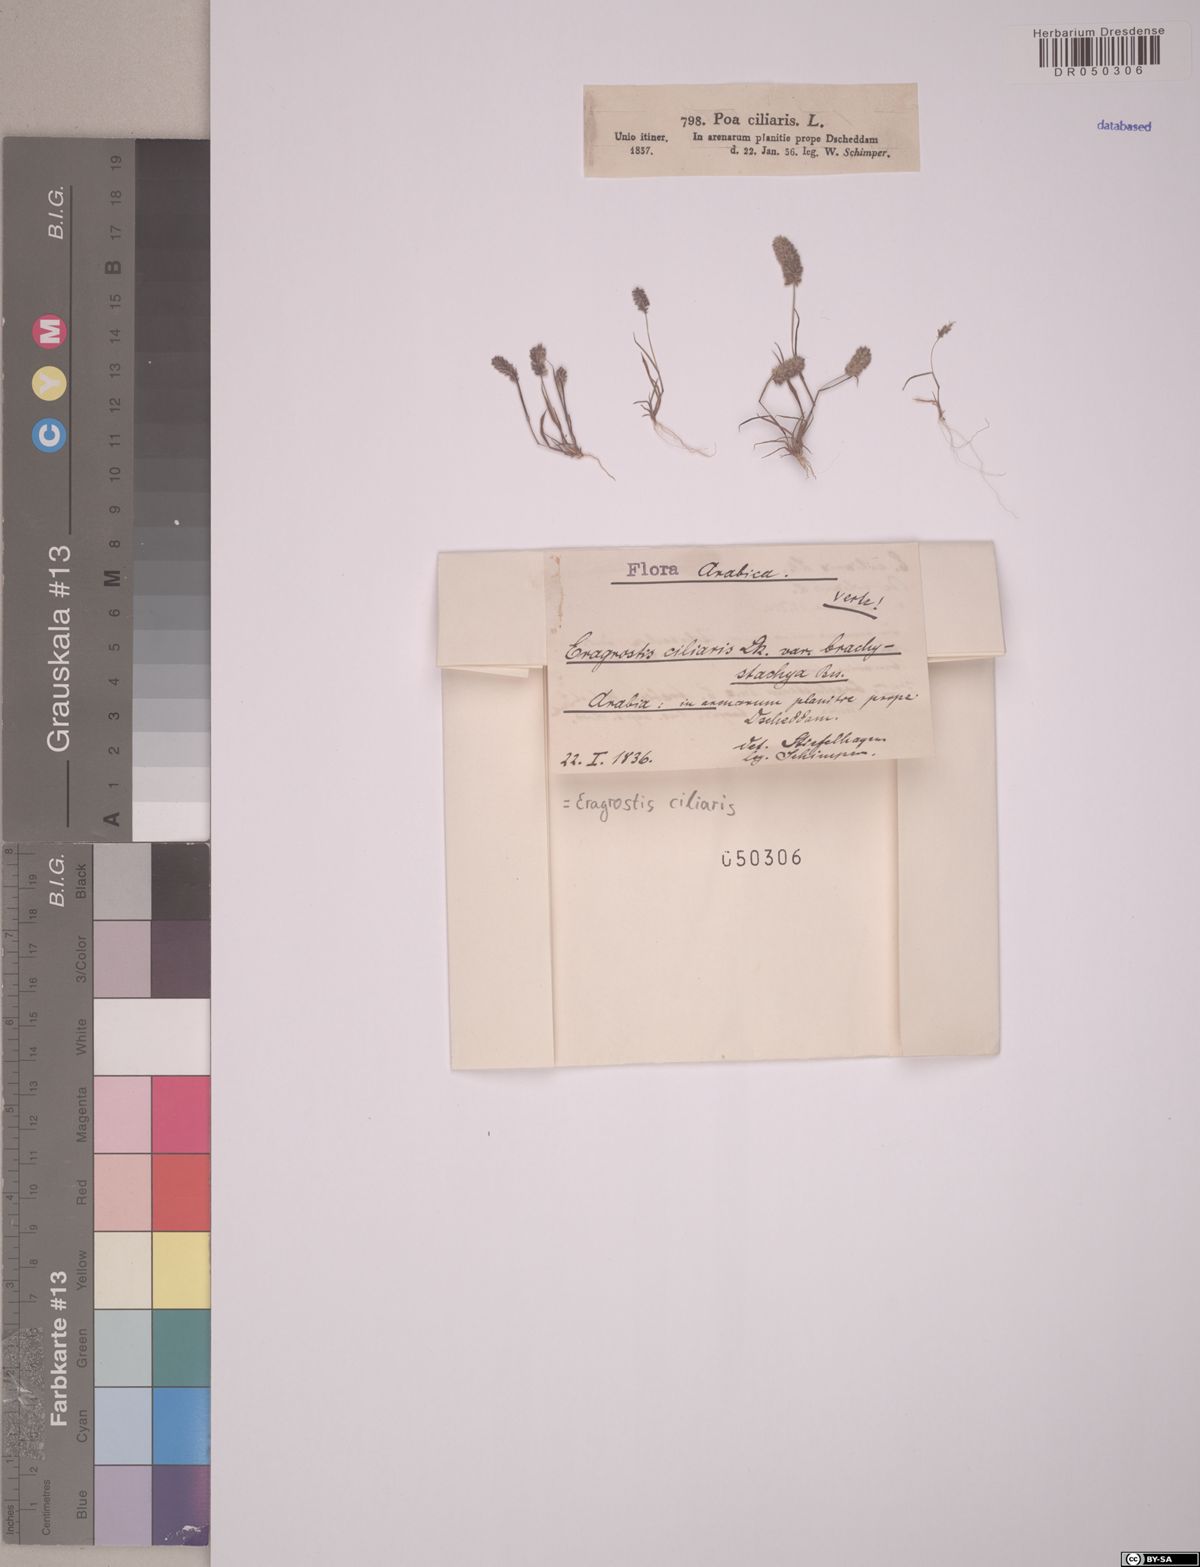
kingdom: Plantae
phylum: Tracheophyta
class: Liliopsida
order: Poales
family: Poaceae
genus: Eragrostis
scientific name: Eragrostis ciliaris
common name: Gophertail lovegrass
